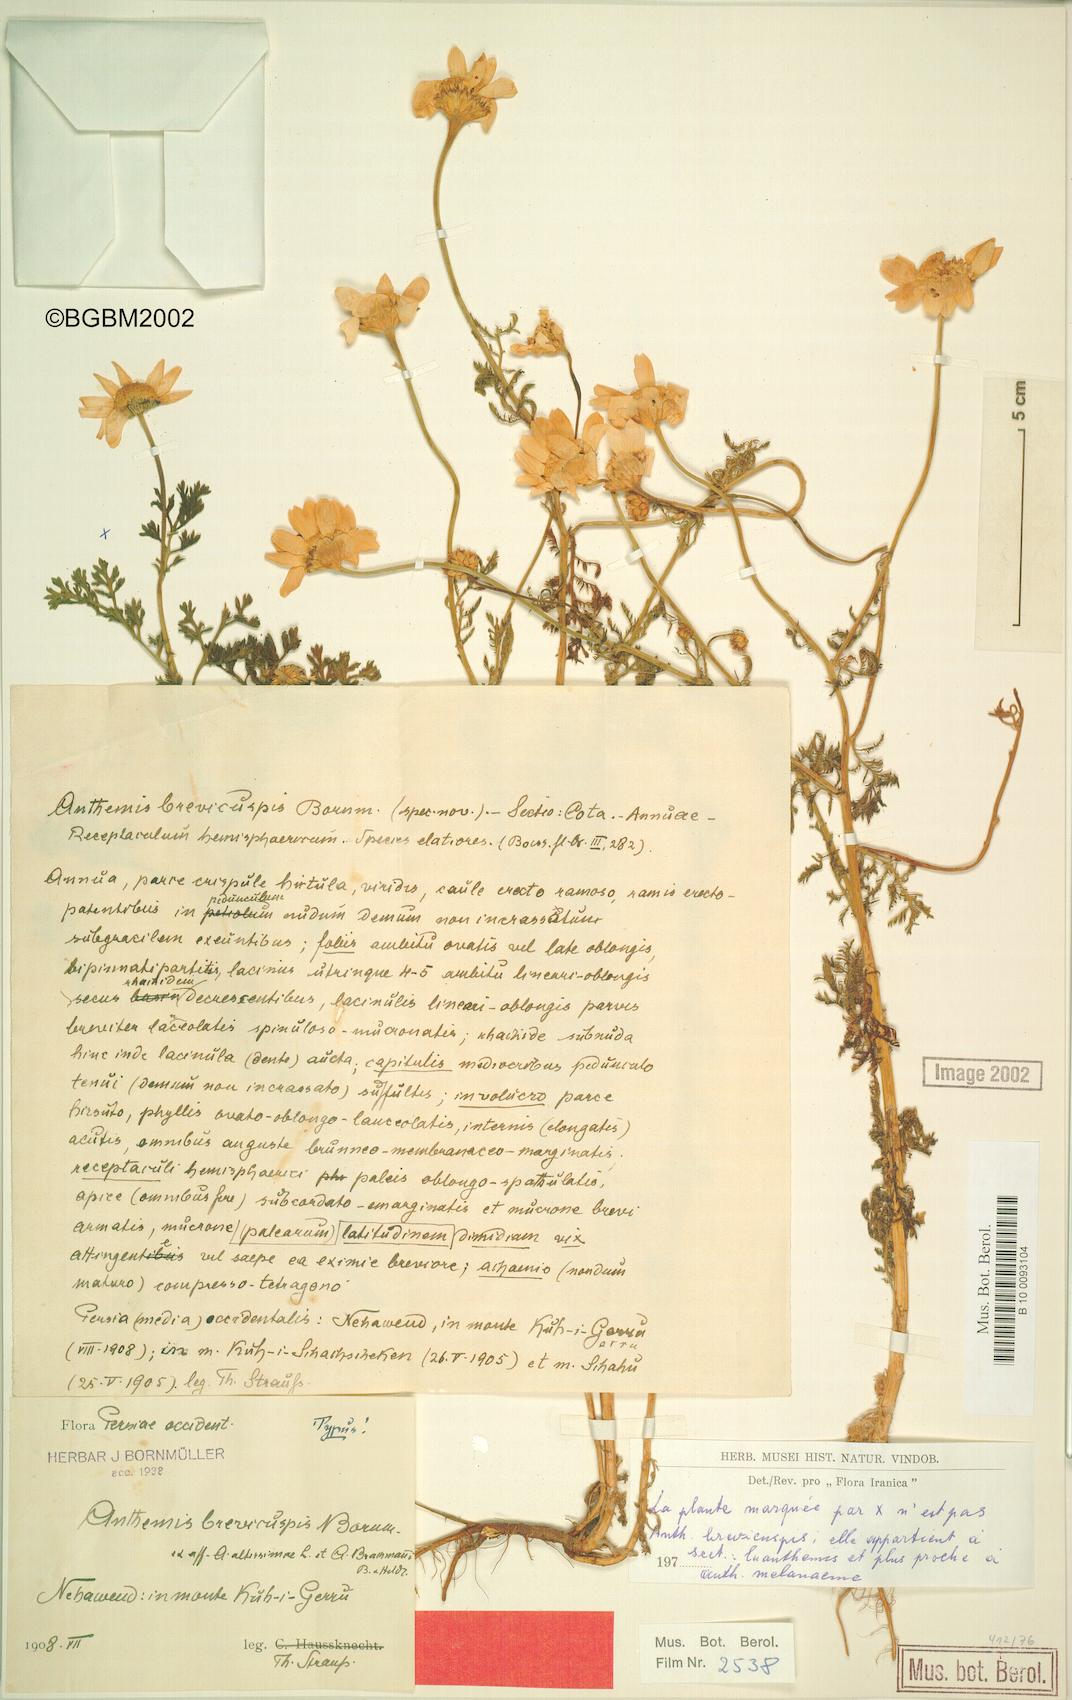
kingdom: Plantae
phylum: Tracheophyta
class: Magnoliopsida
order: Asterales
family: Asteraceae
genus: Cota
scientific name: Cota brevicuspis
